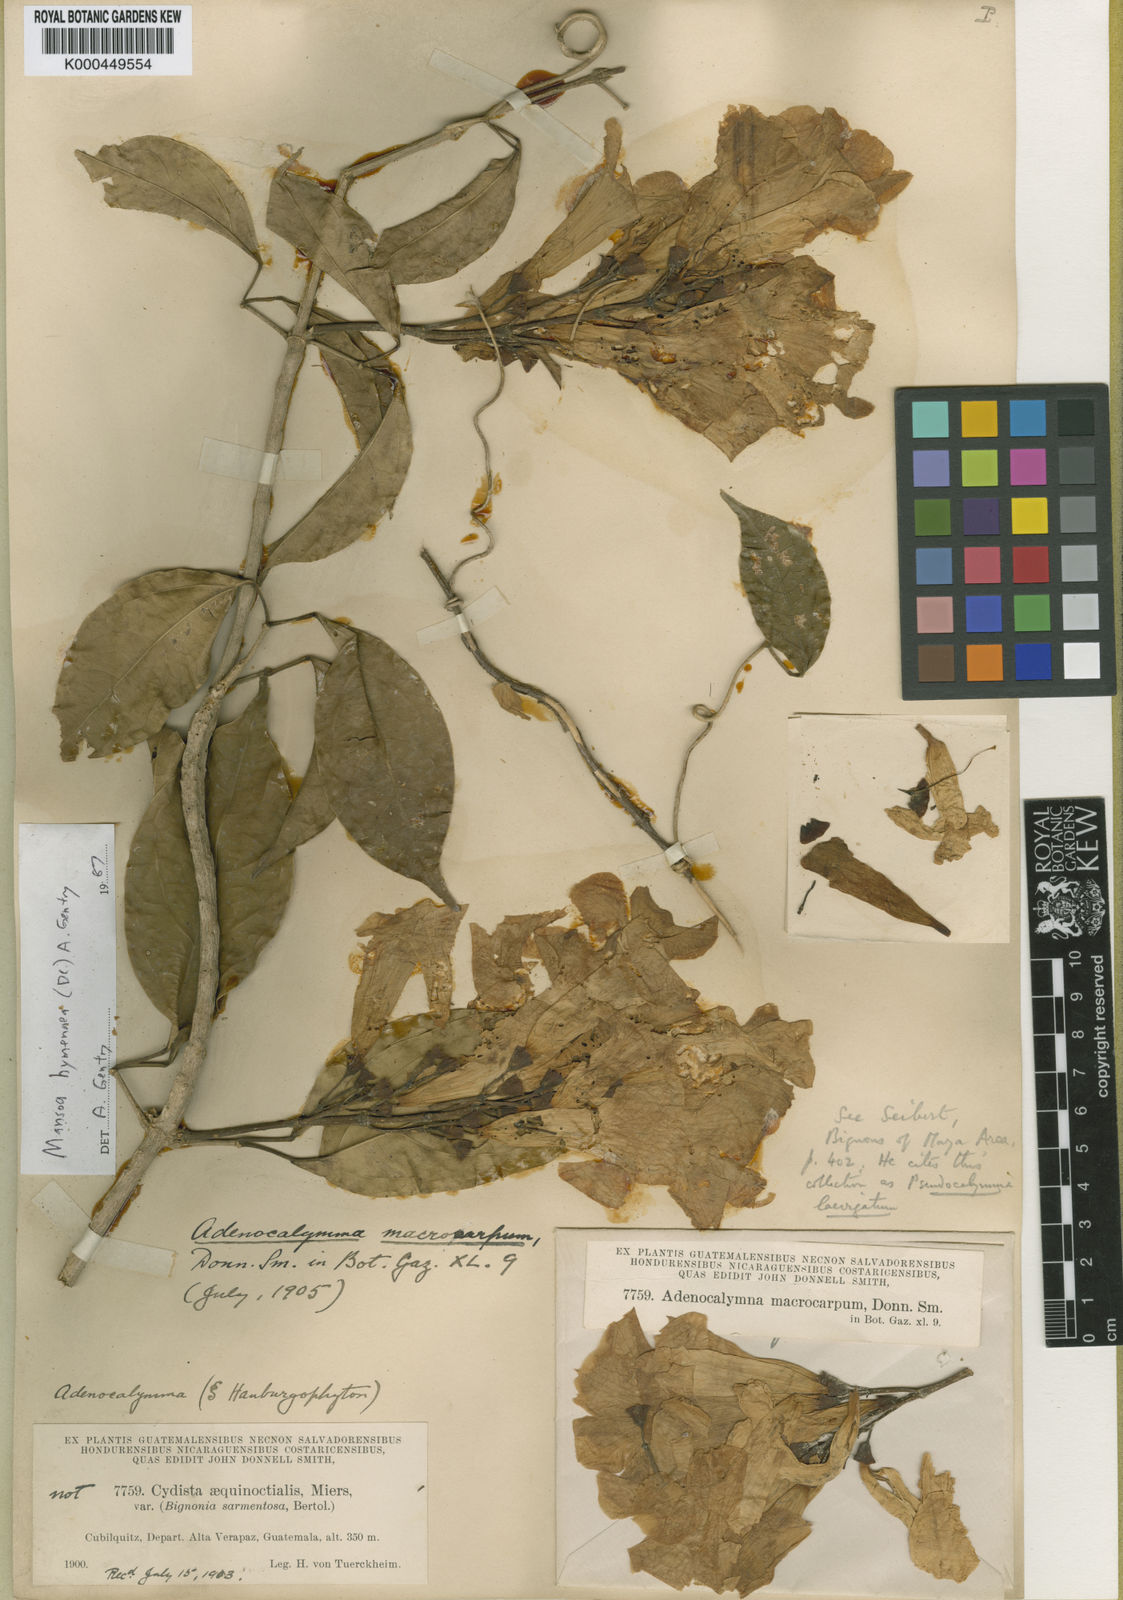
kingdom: Plantae
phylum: Tracheophyta
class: Magnoliopsida
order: Lamiales
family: Bignoniaceae
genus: Mansoa
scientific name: Mansoa hymenaea
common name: Membranous garlic vine
